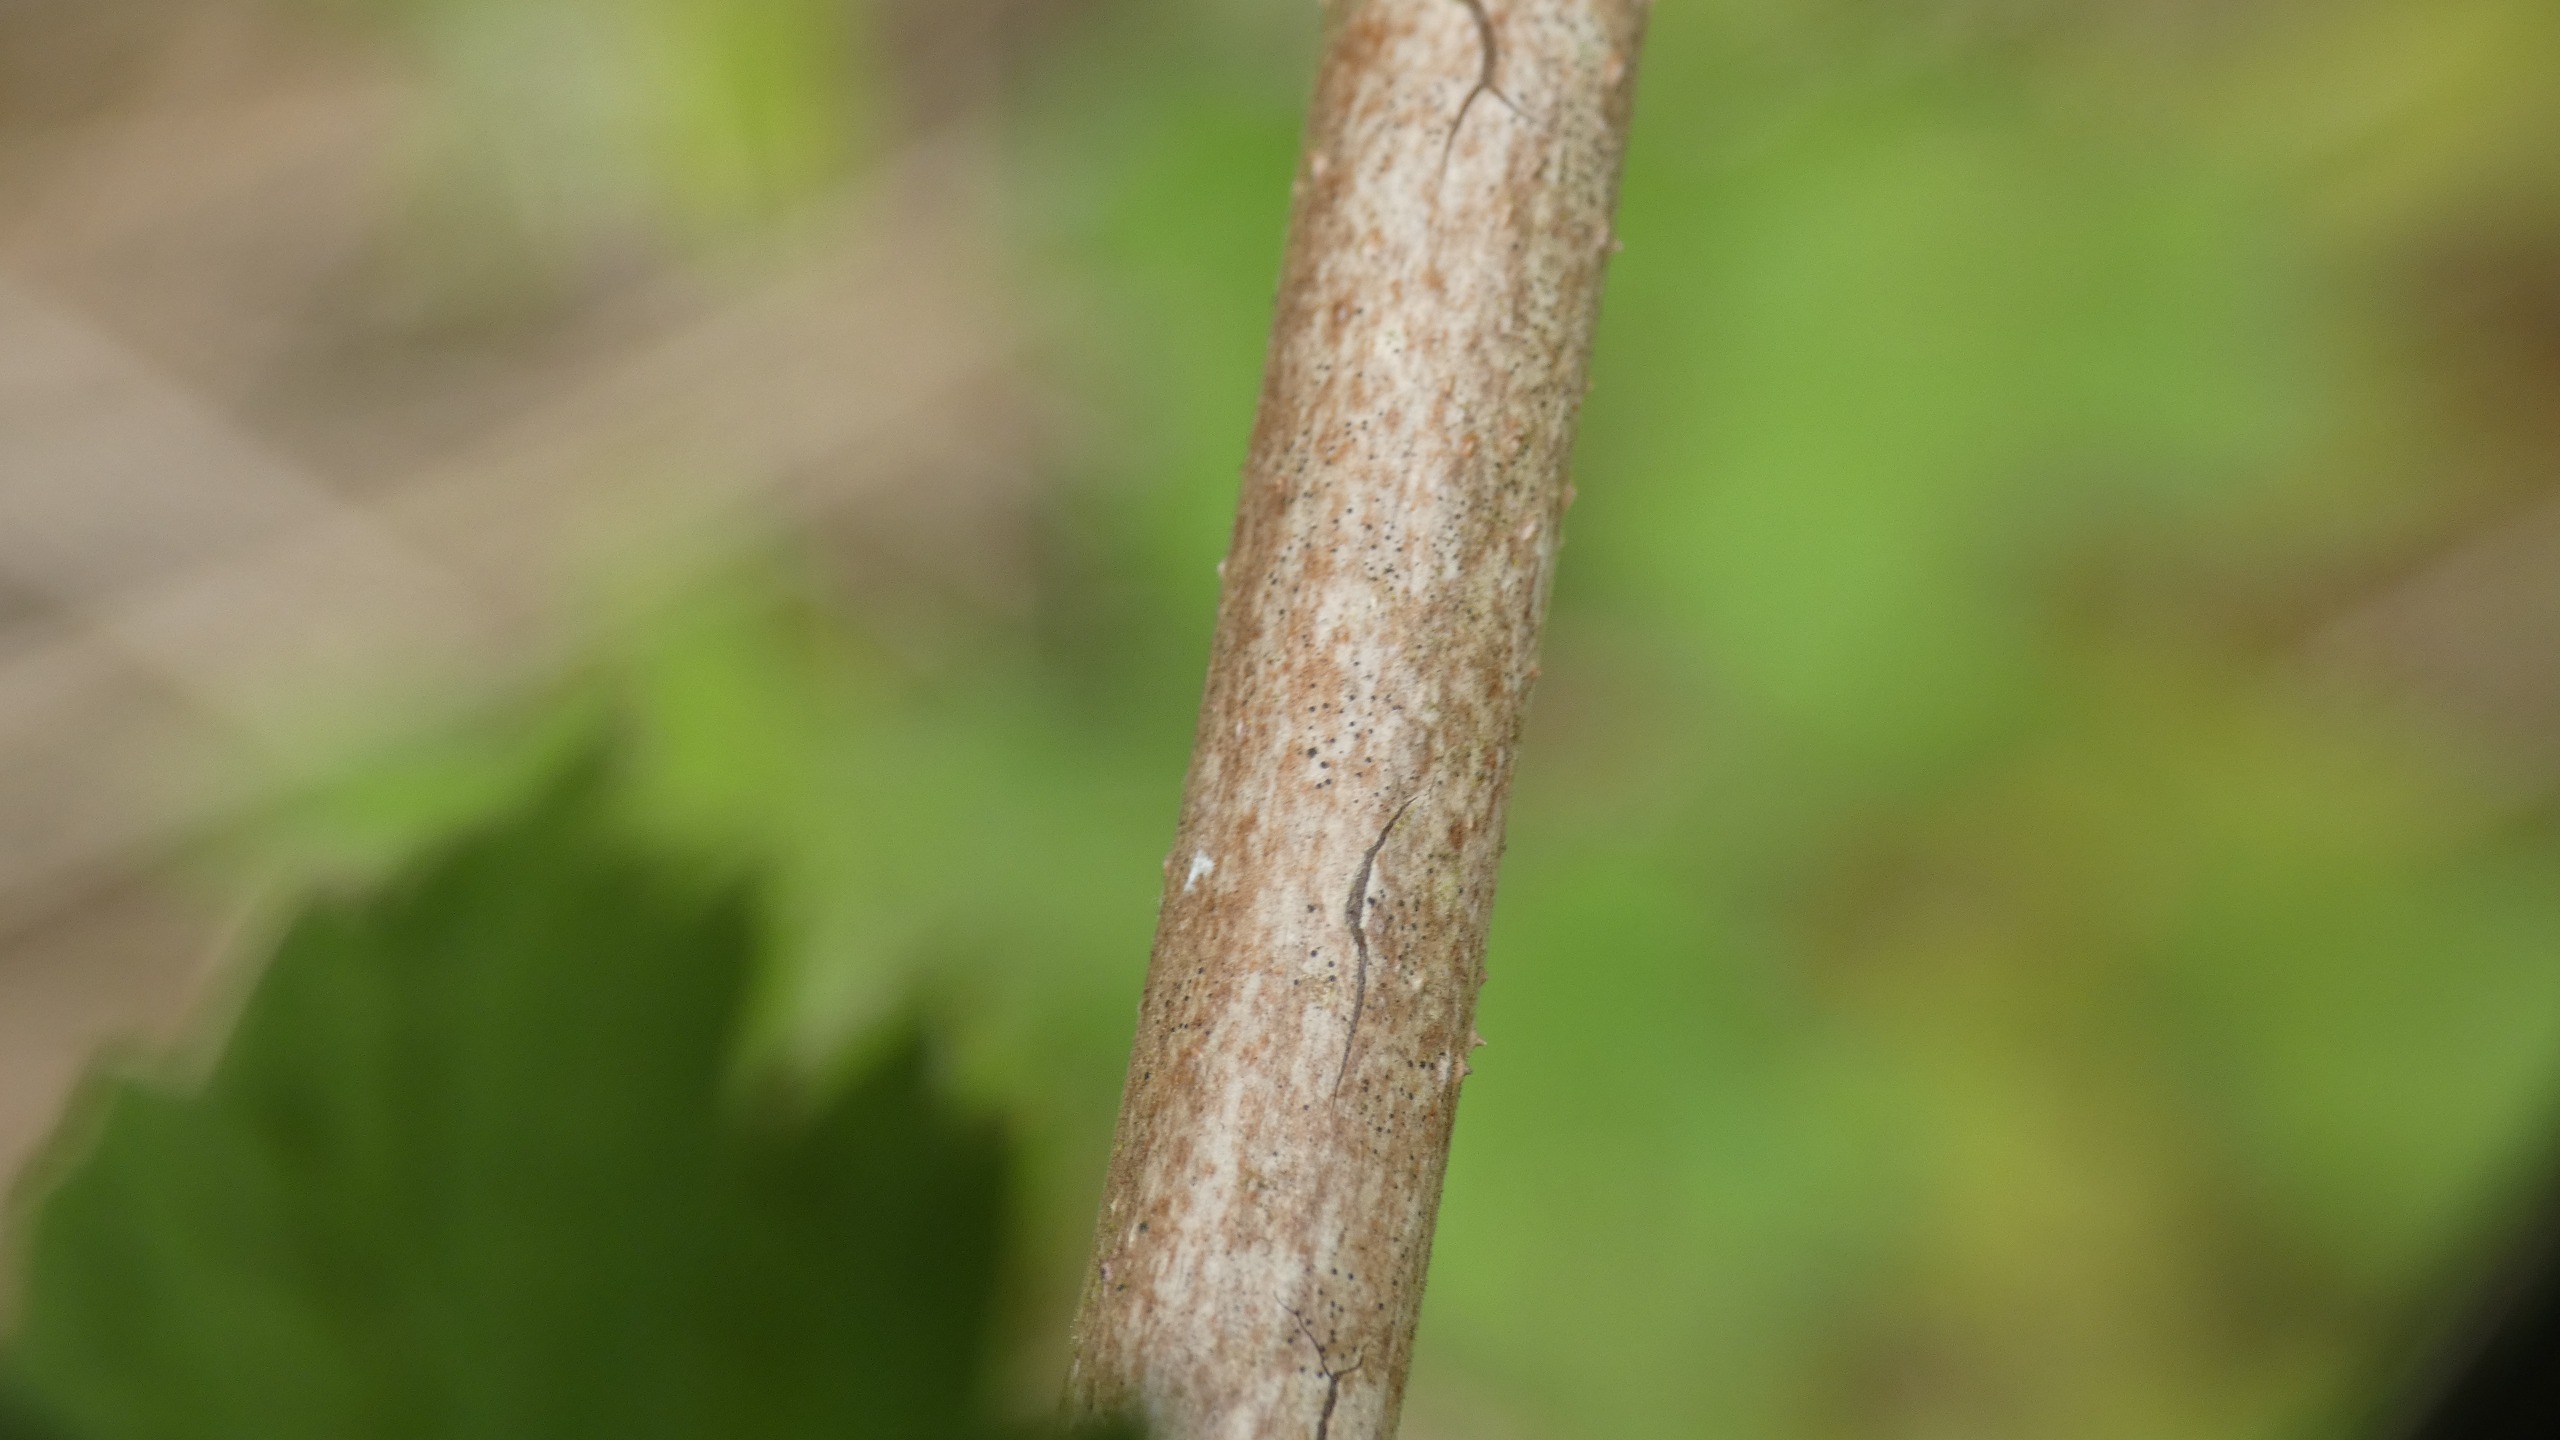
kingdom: Plantae
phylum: Tracheophyta
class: Magnoliopsida
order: Rosales
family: Rosaceae
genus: Rubus
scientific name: Rubus idaeus
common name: Hindbær
